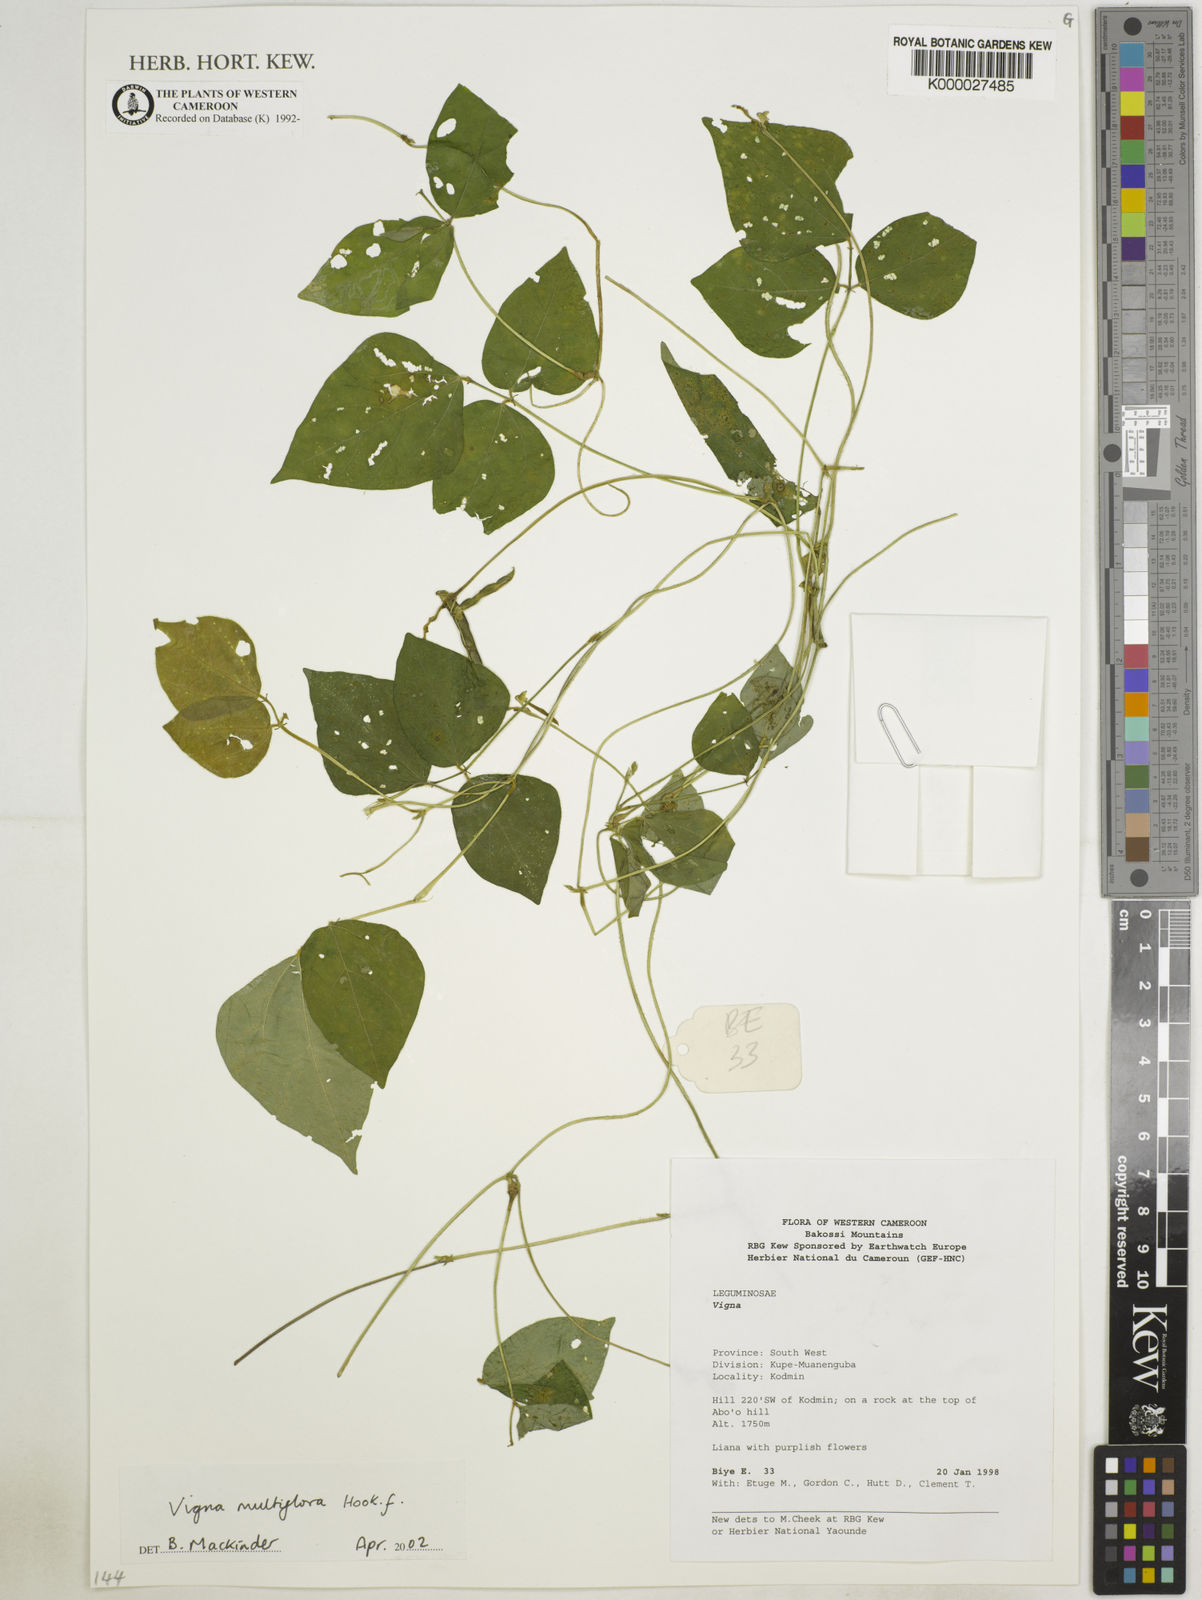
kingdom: Plantae
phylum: Tracheophyta
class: Magnoliopsida
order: Fabales
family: Fabaceae
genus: Vigna
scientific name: Vigna gracilis
